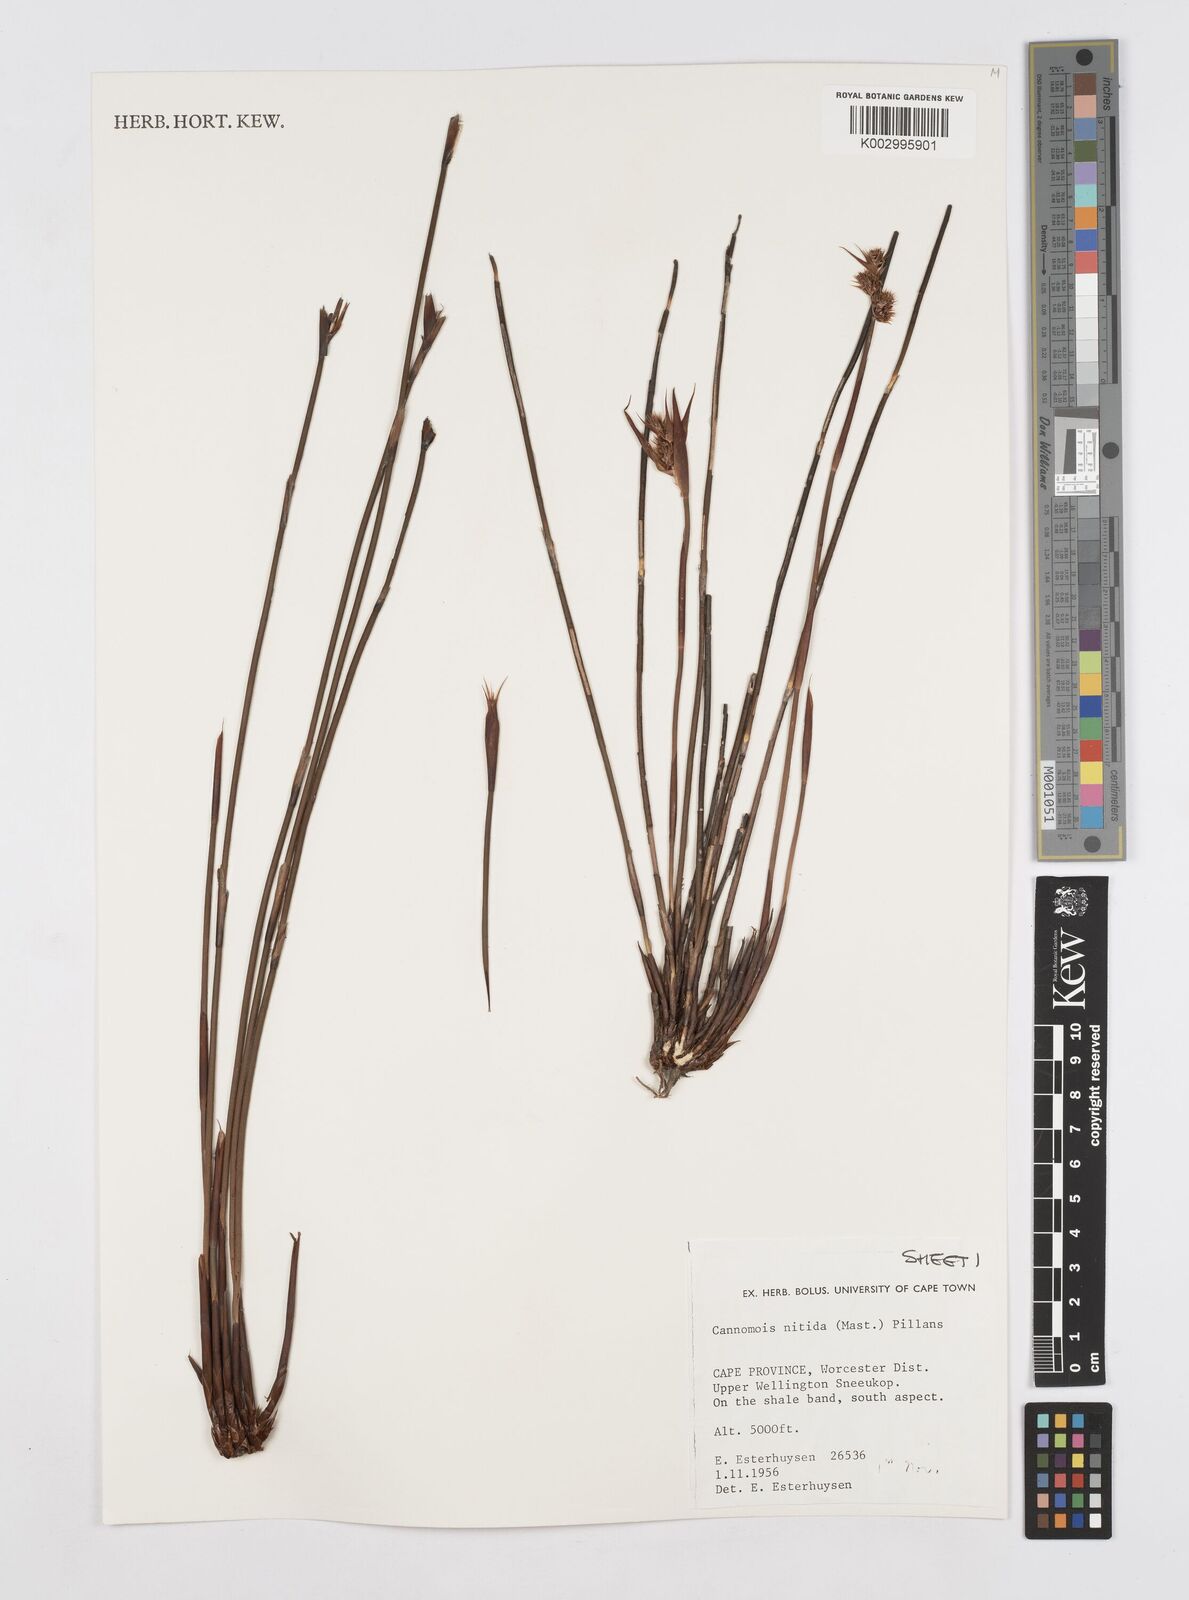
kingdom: Plantae
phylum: Tracheophyta
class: Liliopsida
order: Poales
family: Restionaceae
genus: Cannomois
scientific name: Cannomois nitida
